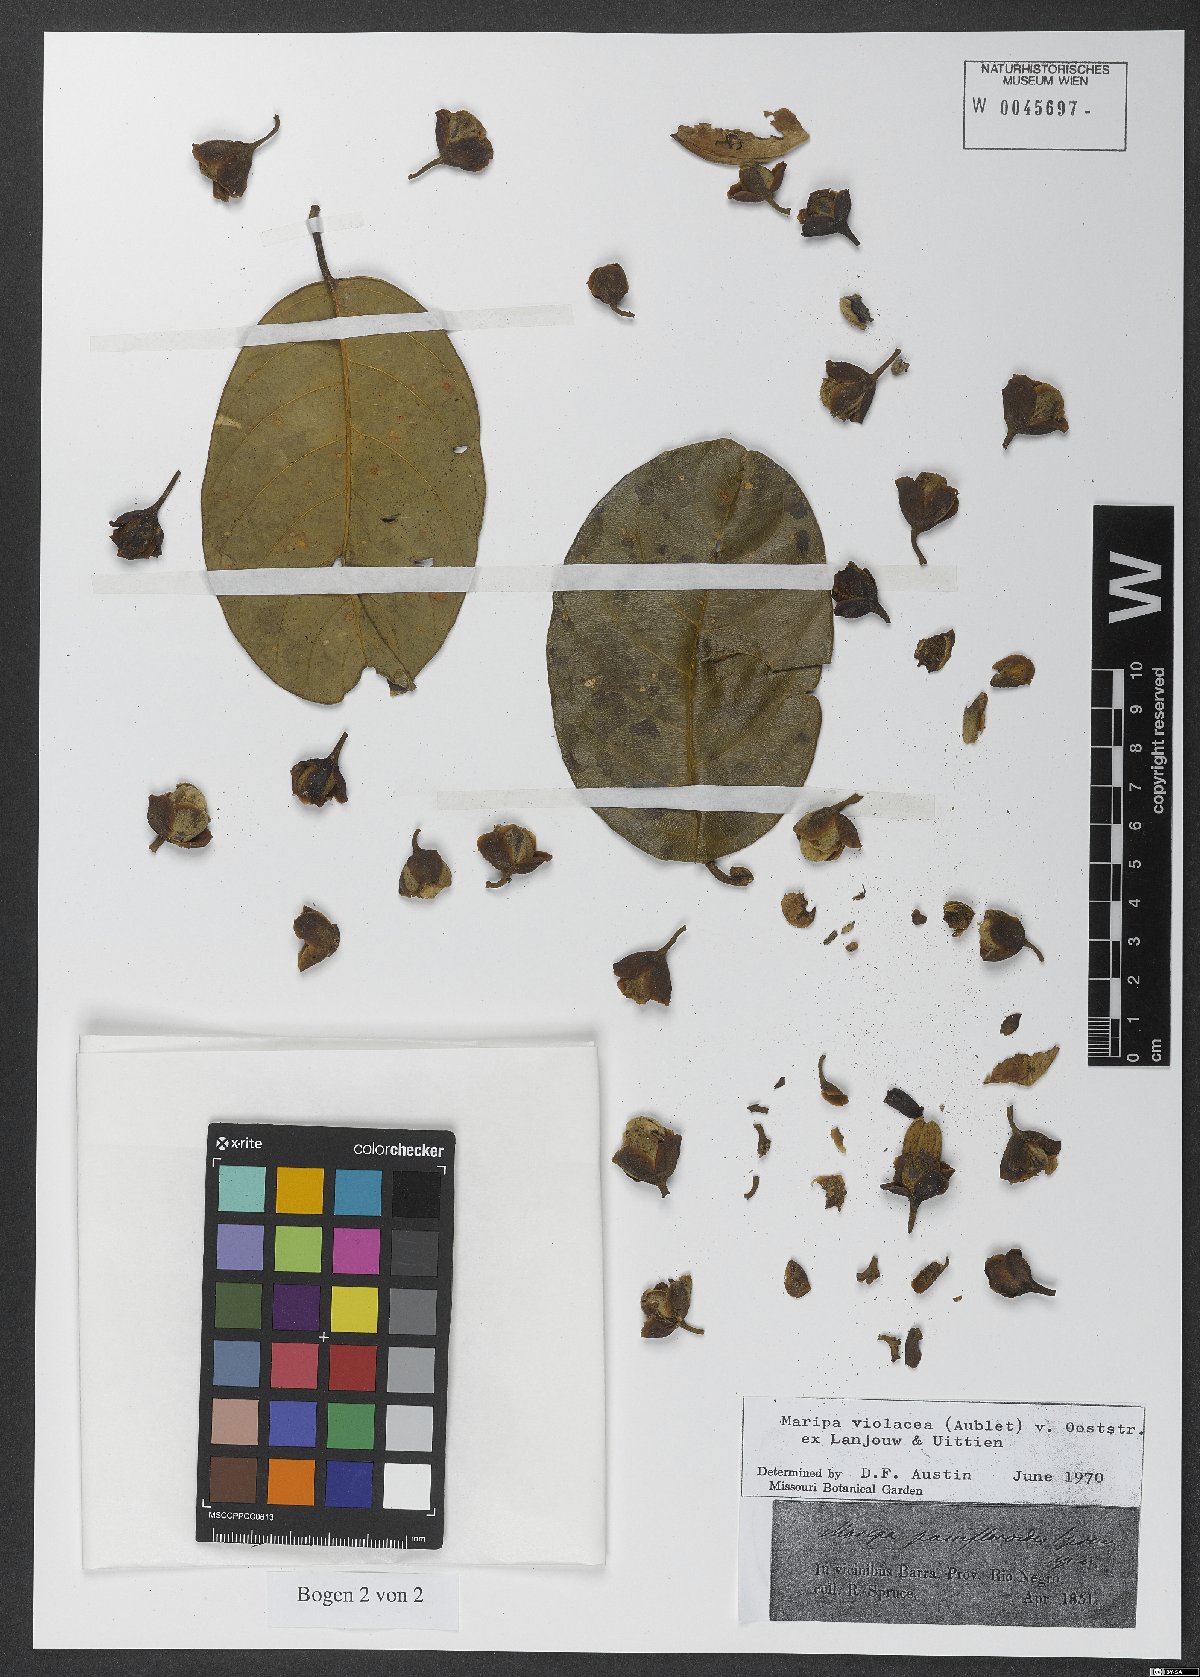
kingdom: Plantae
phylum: Tracheophyta
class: Magnoliopsida
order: Solanales
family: Convolvulaceae
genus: Maripa
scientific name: Maripa violacea
